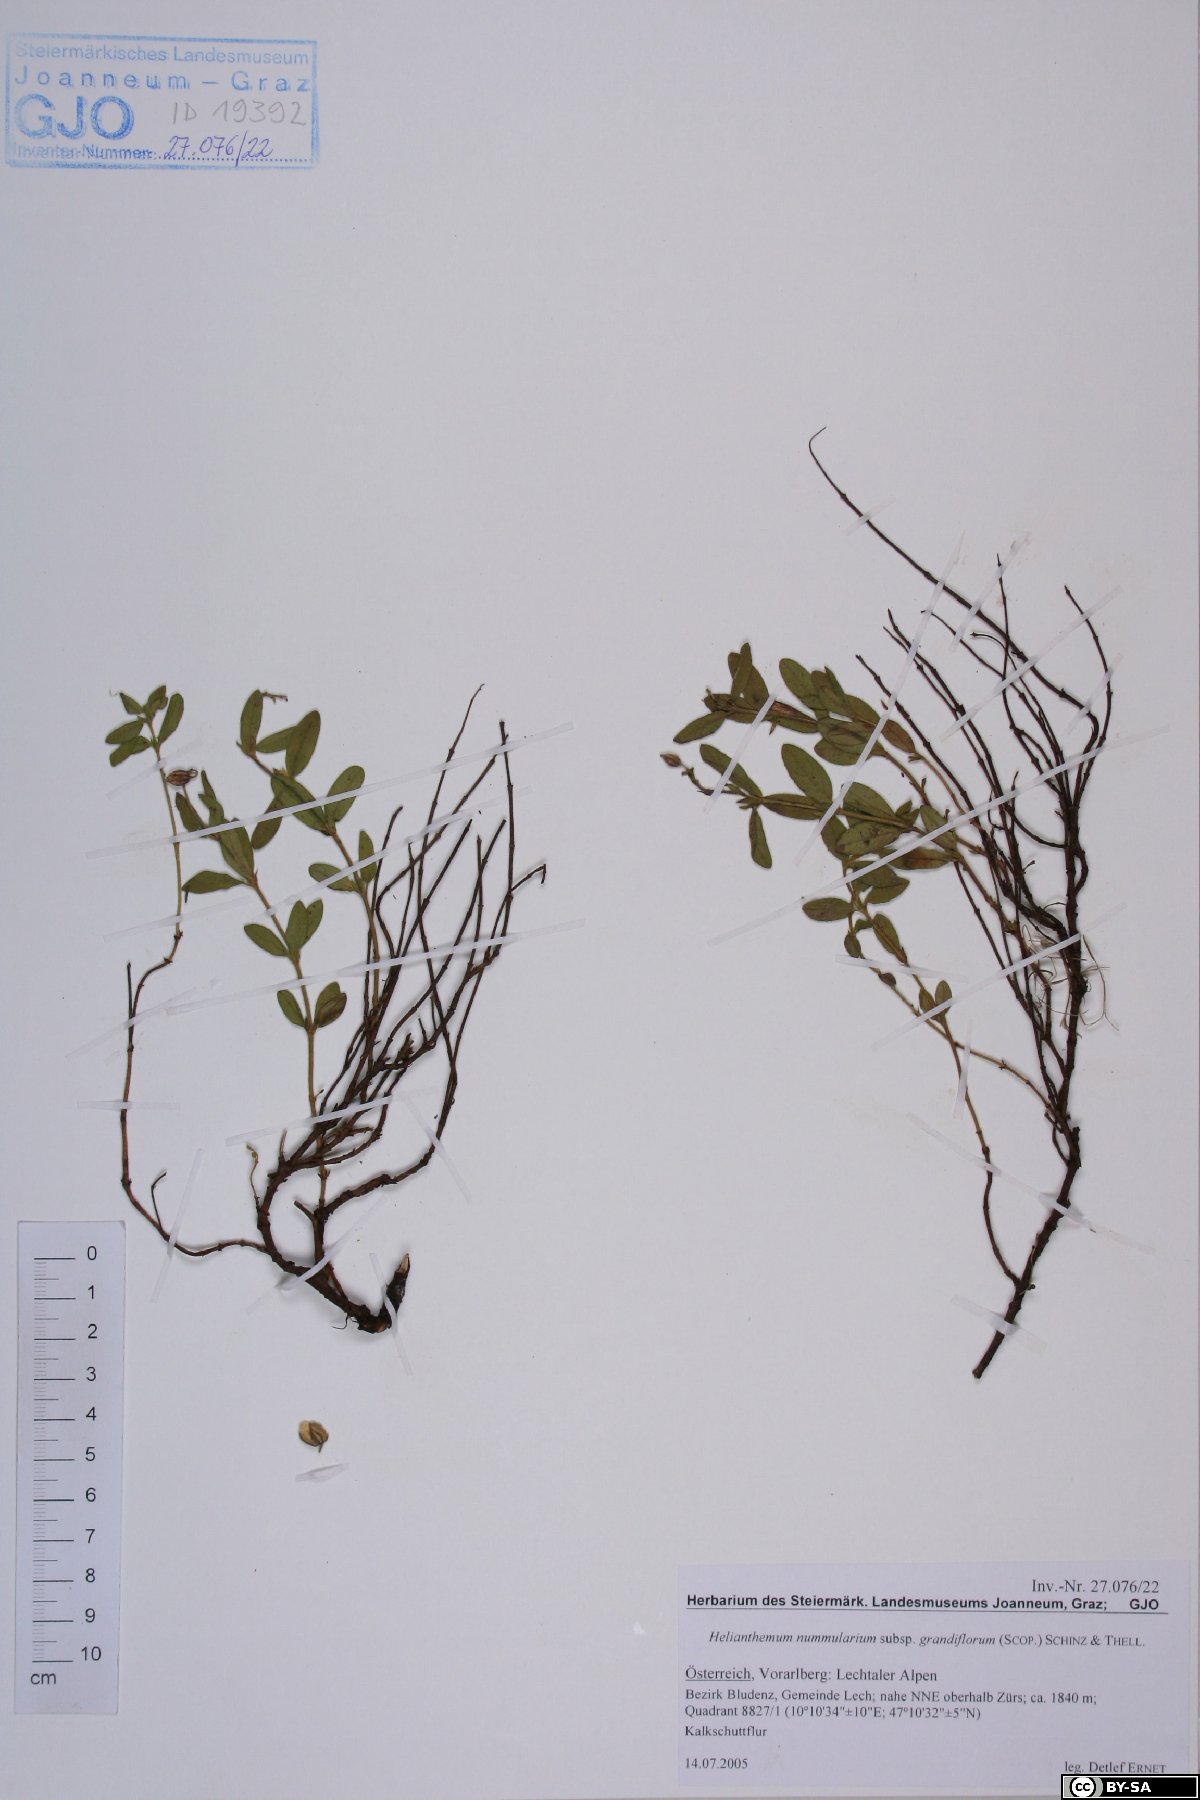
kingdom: Plantae
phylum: Tracheophyta
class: Magnoliopsida
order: Malvales
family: Cistaceae
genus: Helianthemum
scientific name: Helianthemum nummularium
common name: Common rock-rose
